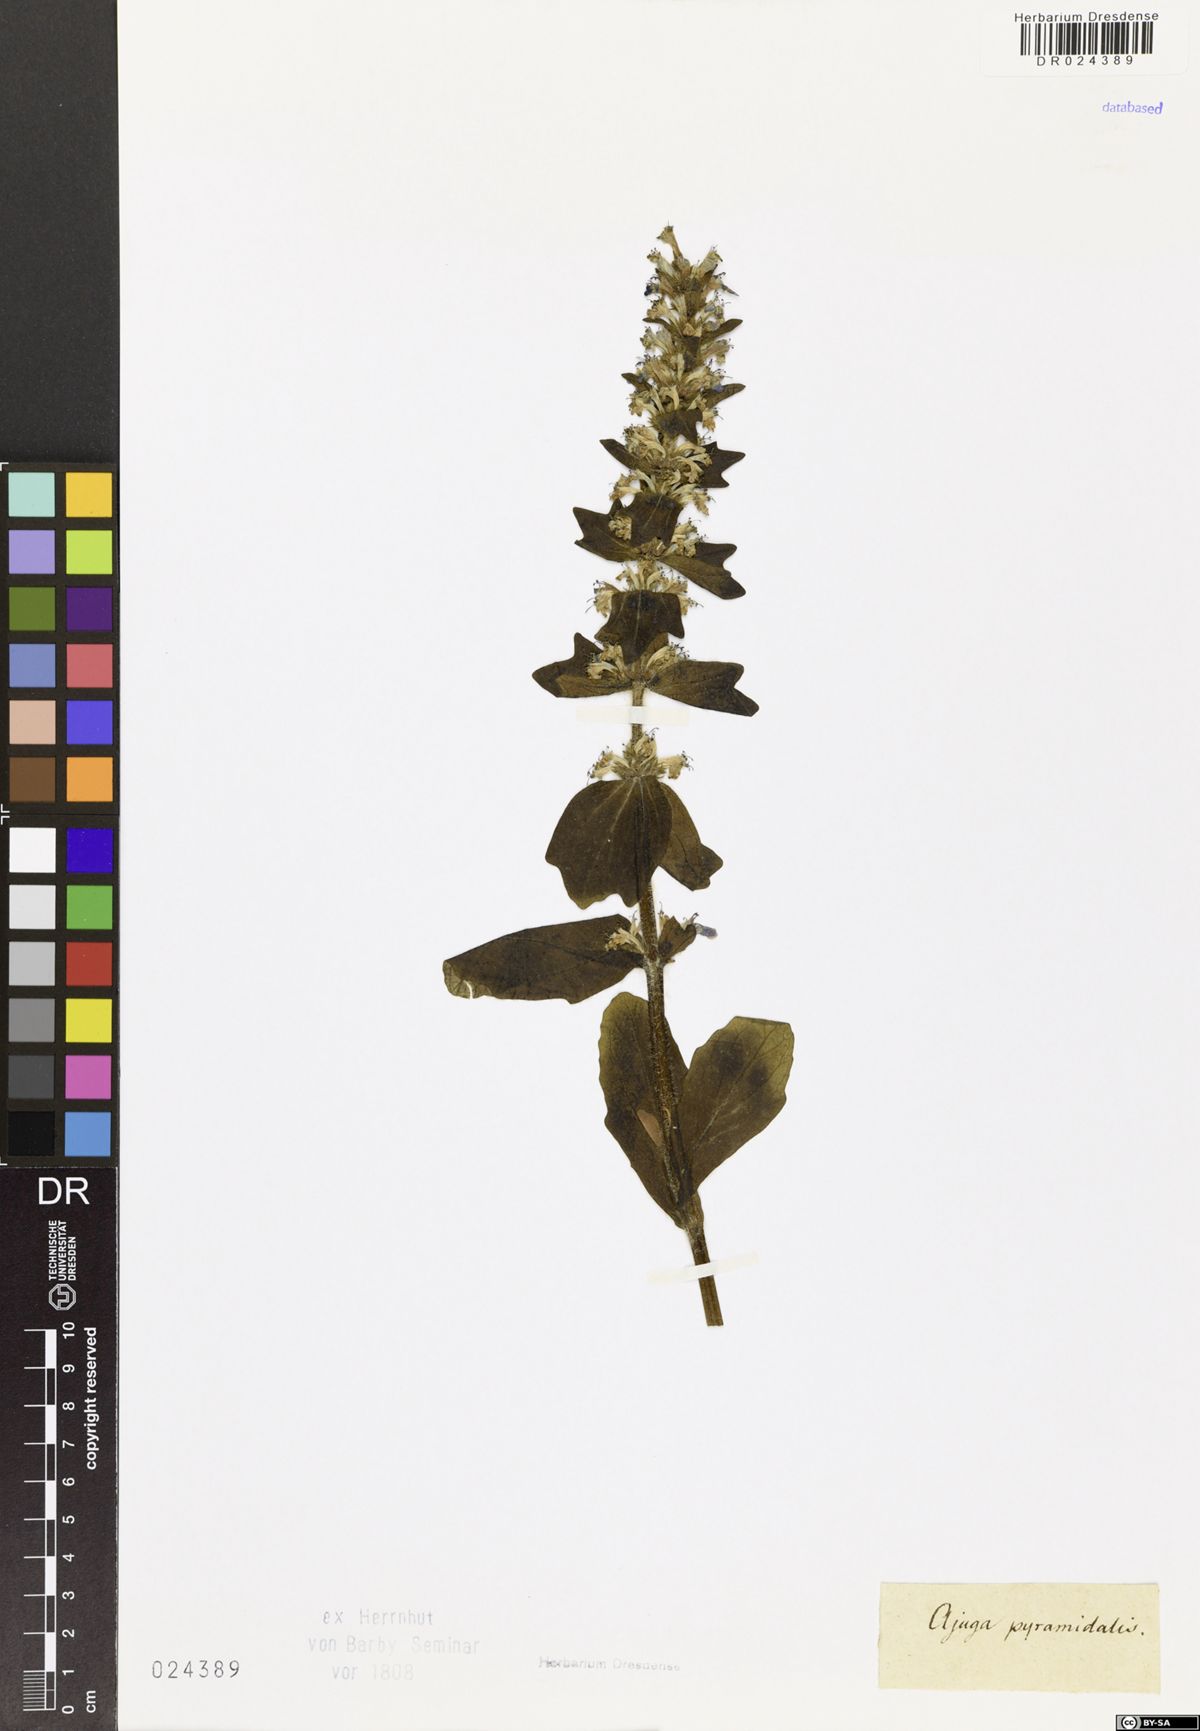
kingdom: Plantae
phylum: Tracheophyta
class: Magnoliopsida
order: Lamiales
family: Lamiaceae
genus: Ajuga
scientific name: Ajuga genevensis
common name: Blue bugle
